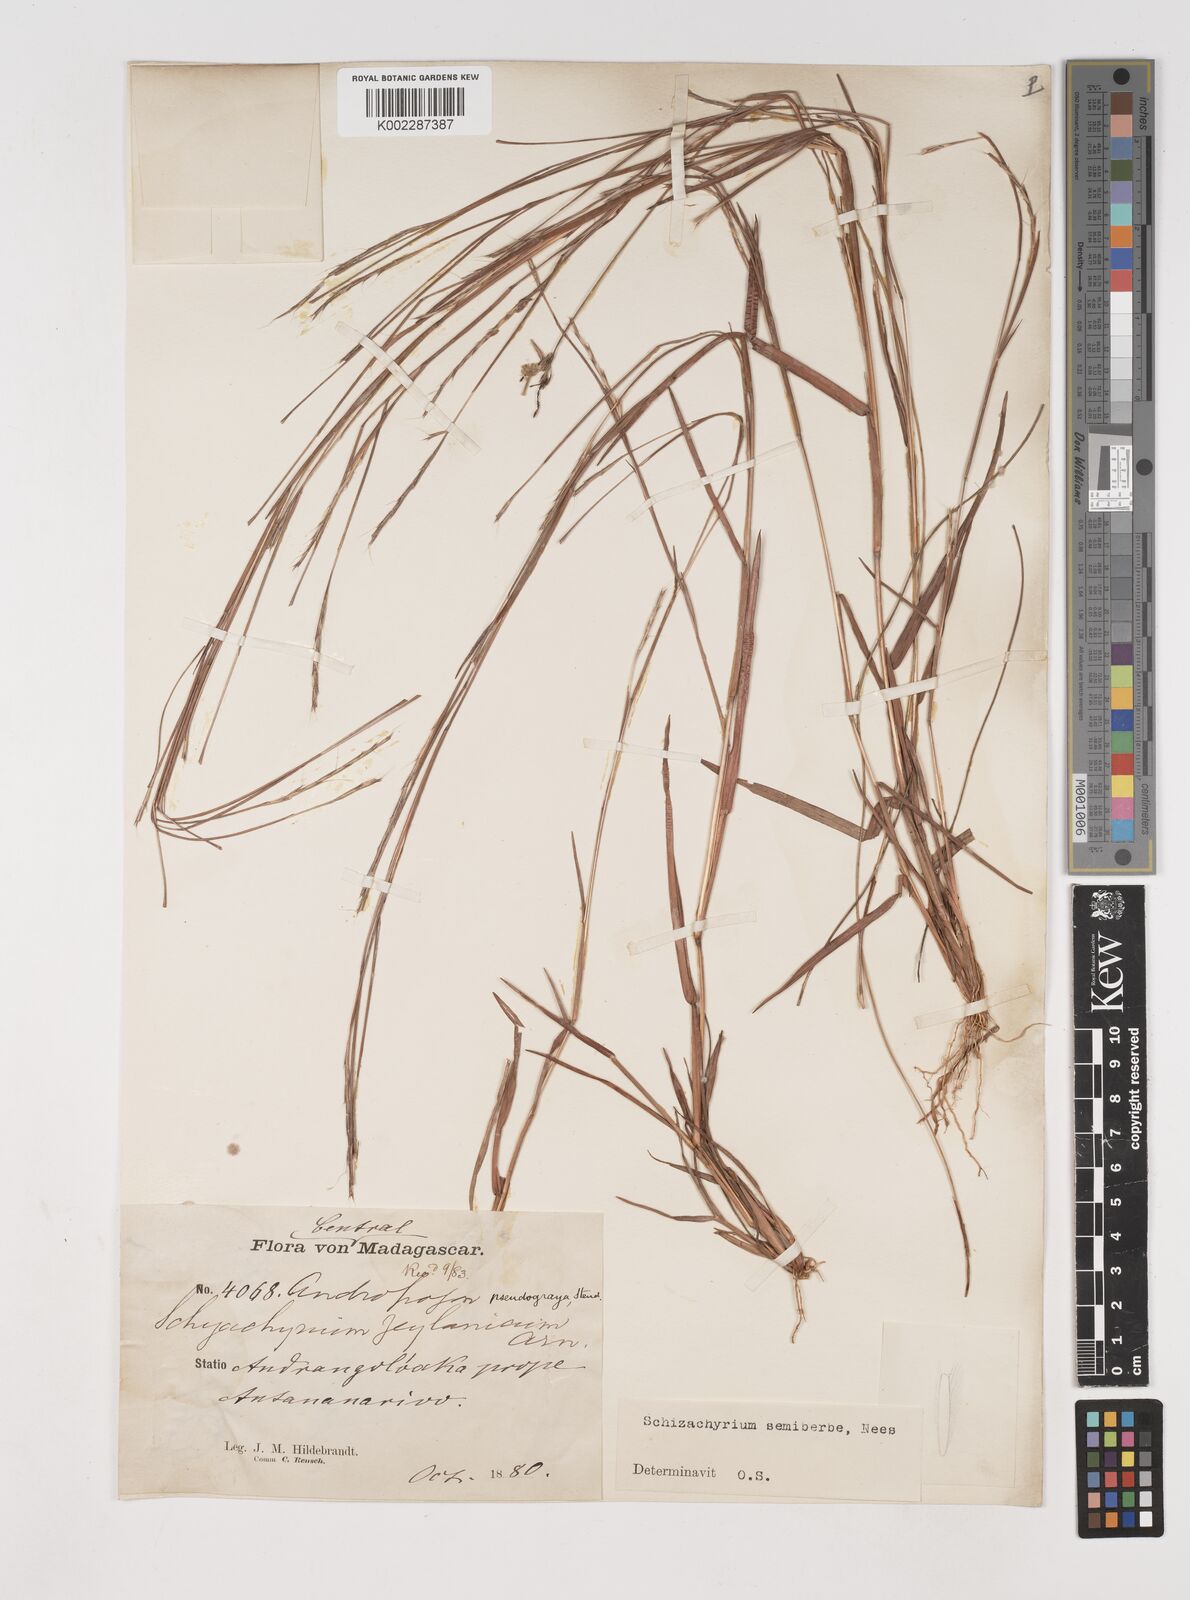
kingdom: Plantae
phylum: Tracheophyta
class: Liliopsida
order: Poales
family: Poaceae
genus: Schizachyrium
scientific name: Schizachyrium sanguineum
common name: Crimson bluestem
